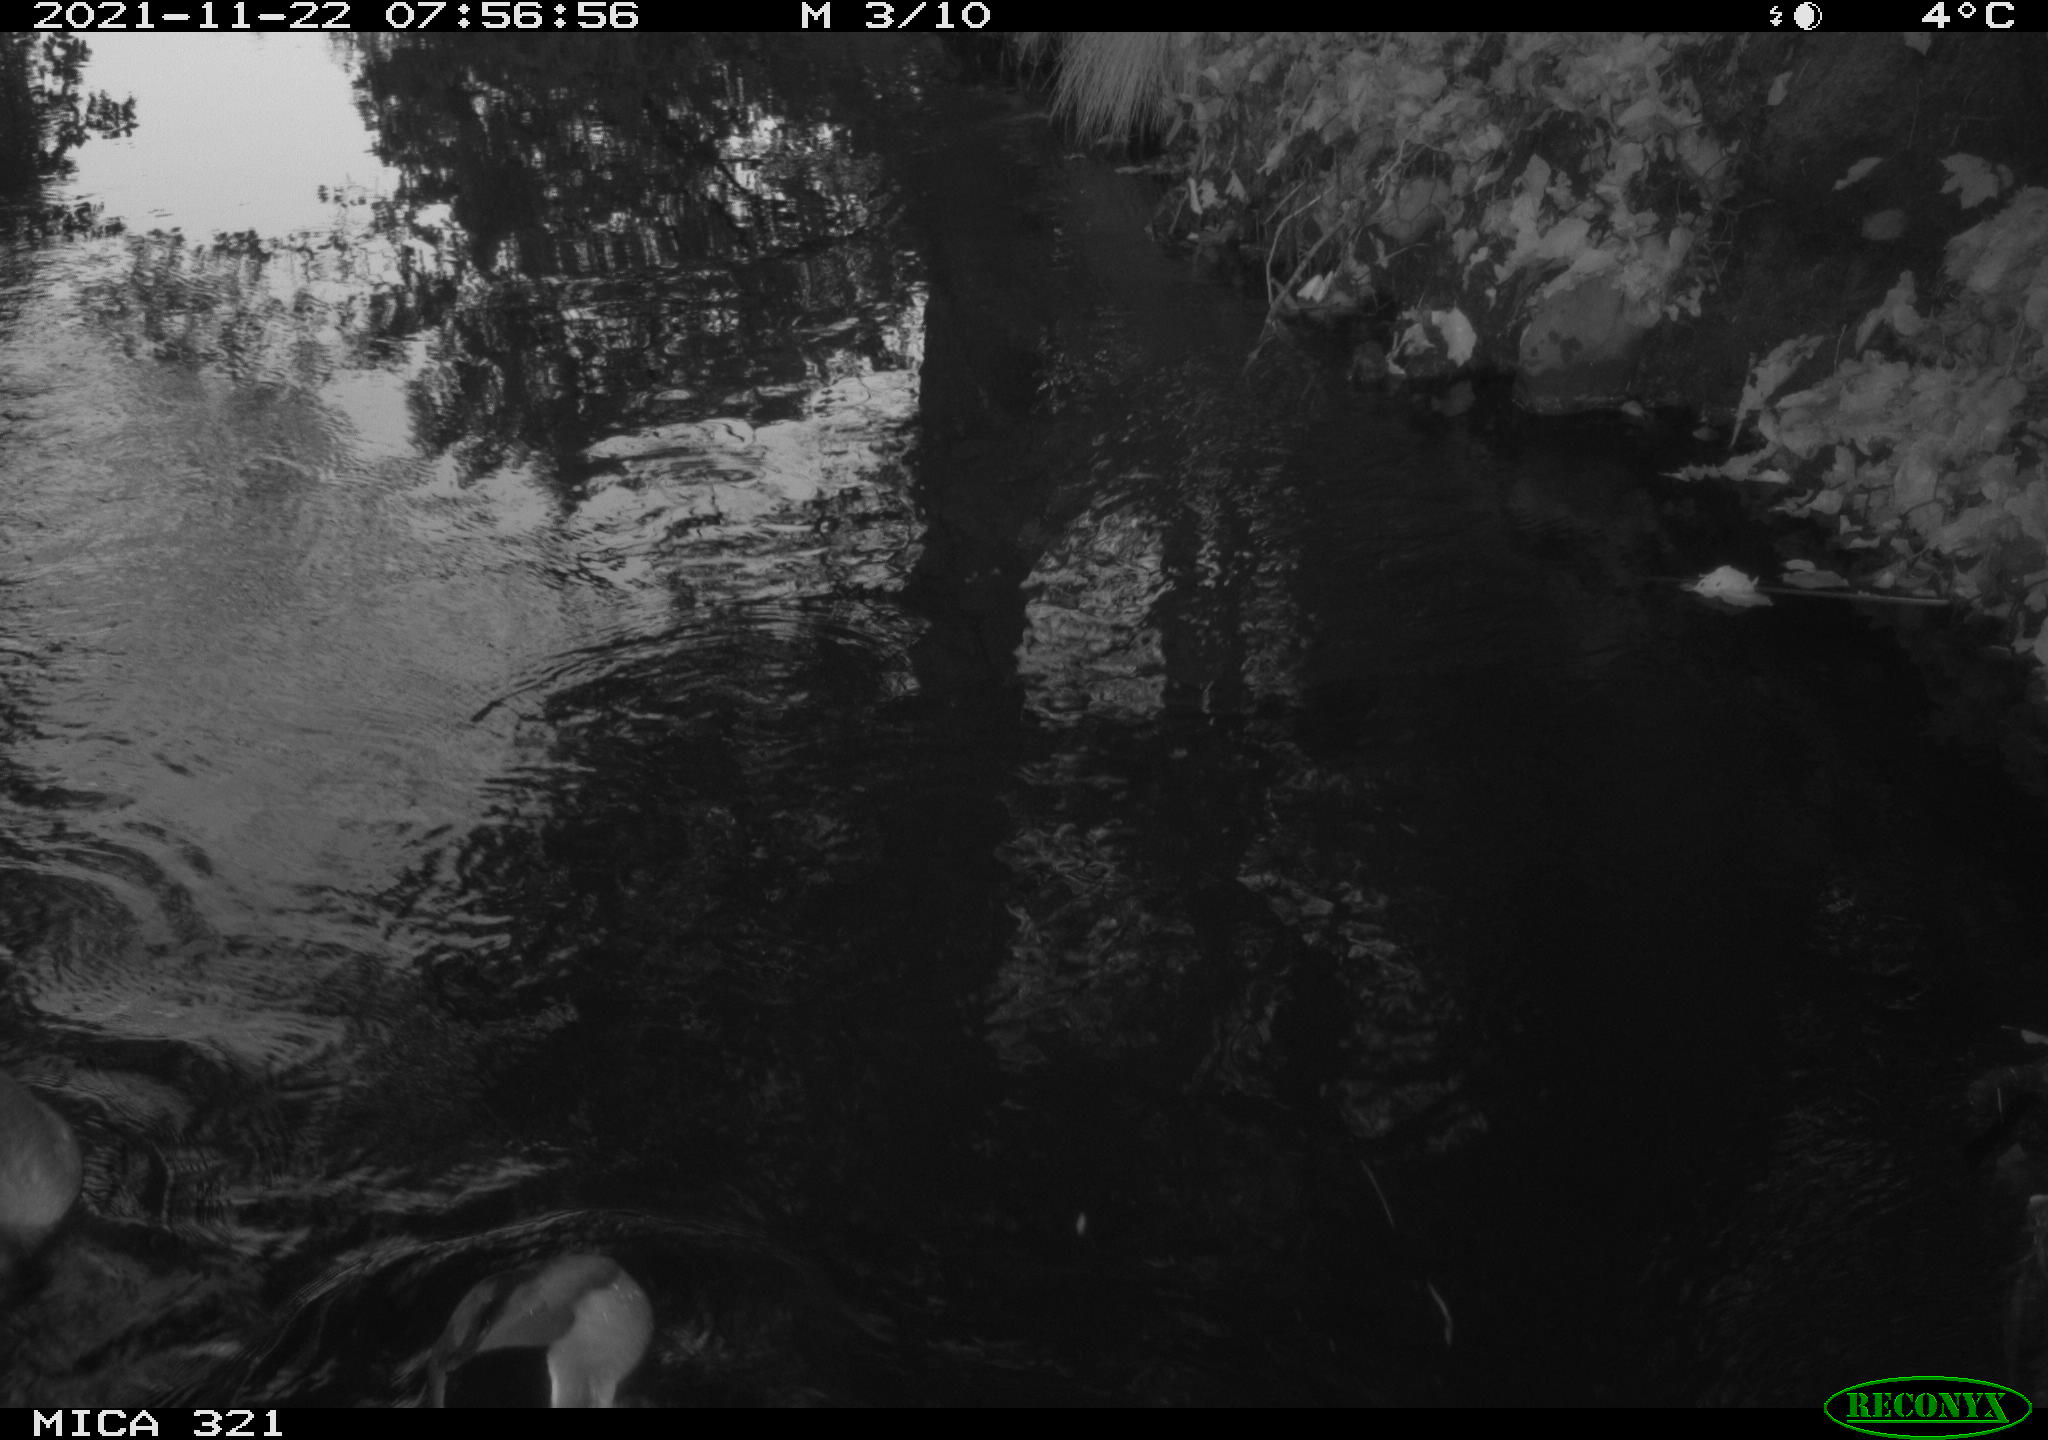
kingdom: Animalia
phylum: Chordata
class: Aves
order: Anseriformes
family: Anatidae
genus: Anas
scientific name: Anas platyrhynchos
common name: Mallard
